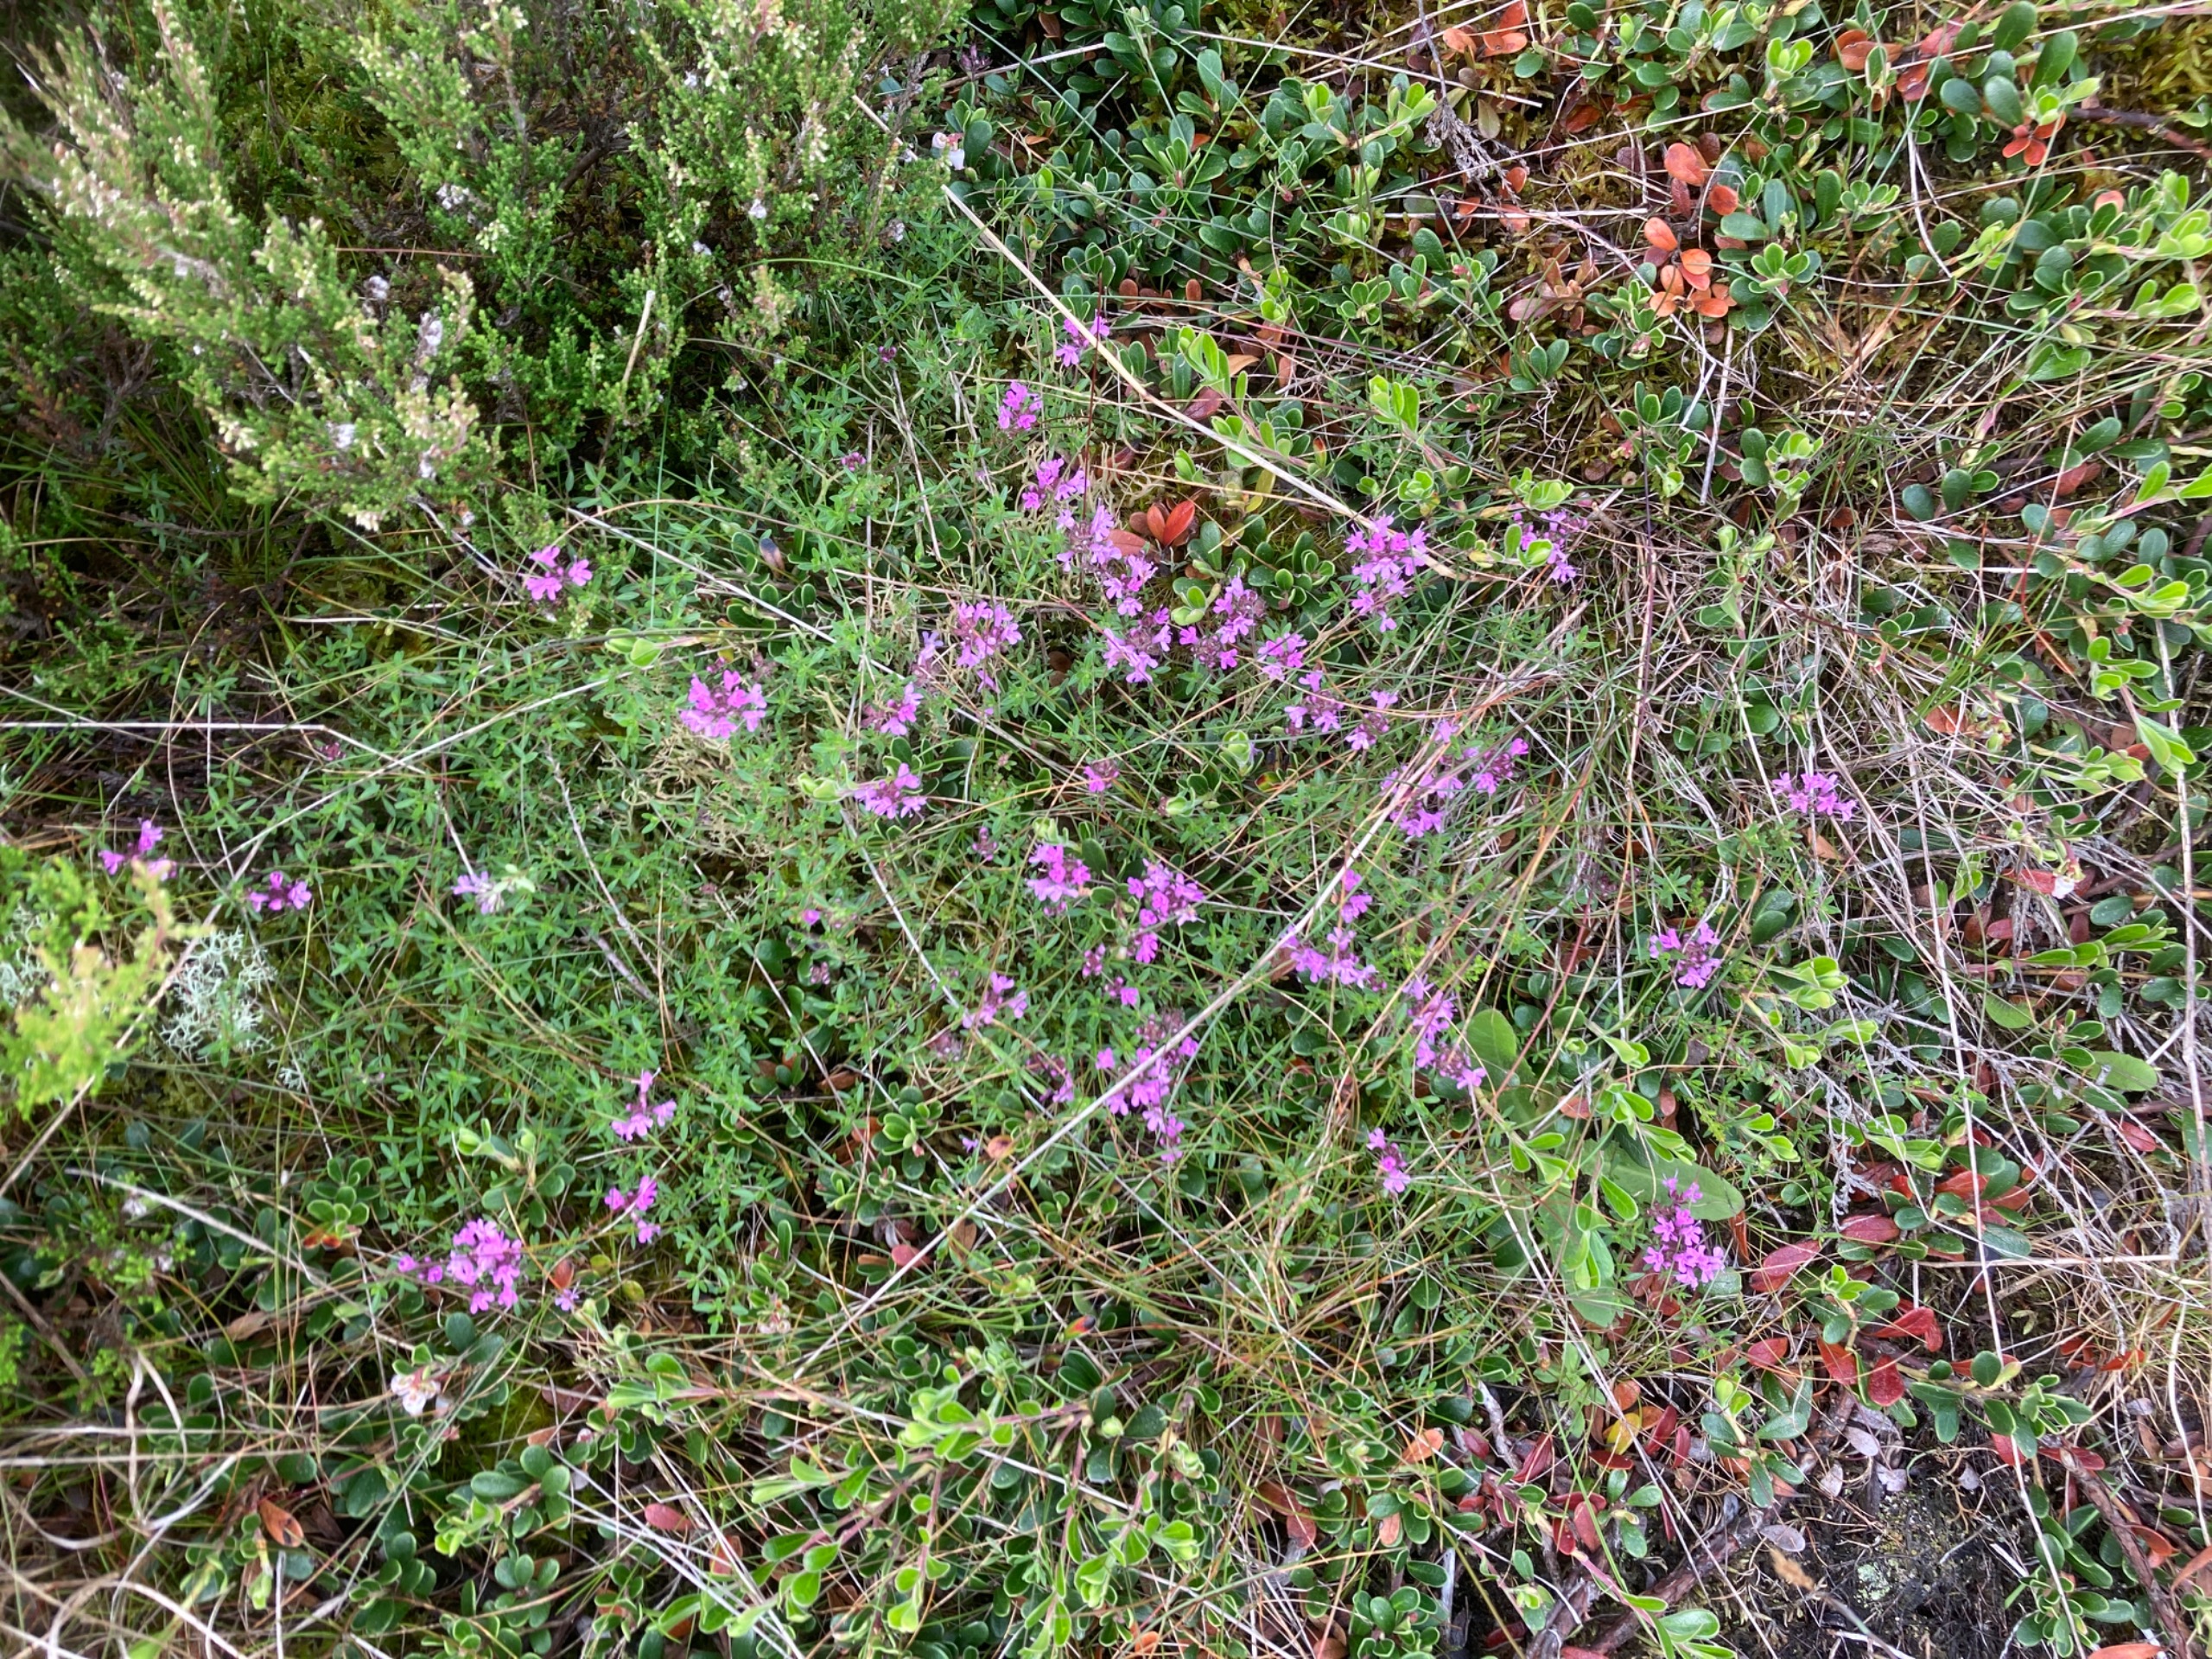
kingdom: Plantae
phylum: Tracheophyta
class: Magnoliopsida
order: Lamiales
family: Lamiaceae
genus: Thymus
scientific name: Thymus serpyllum
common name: Smalbladet timian
